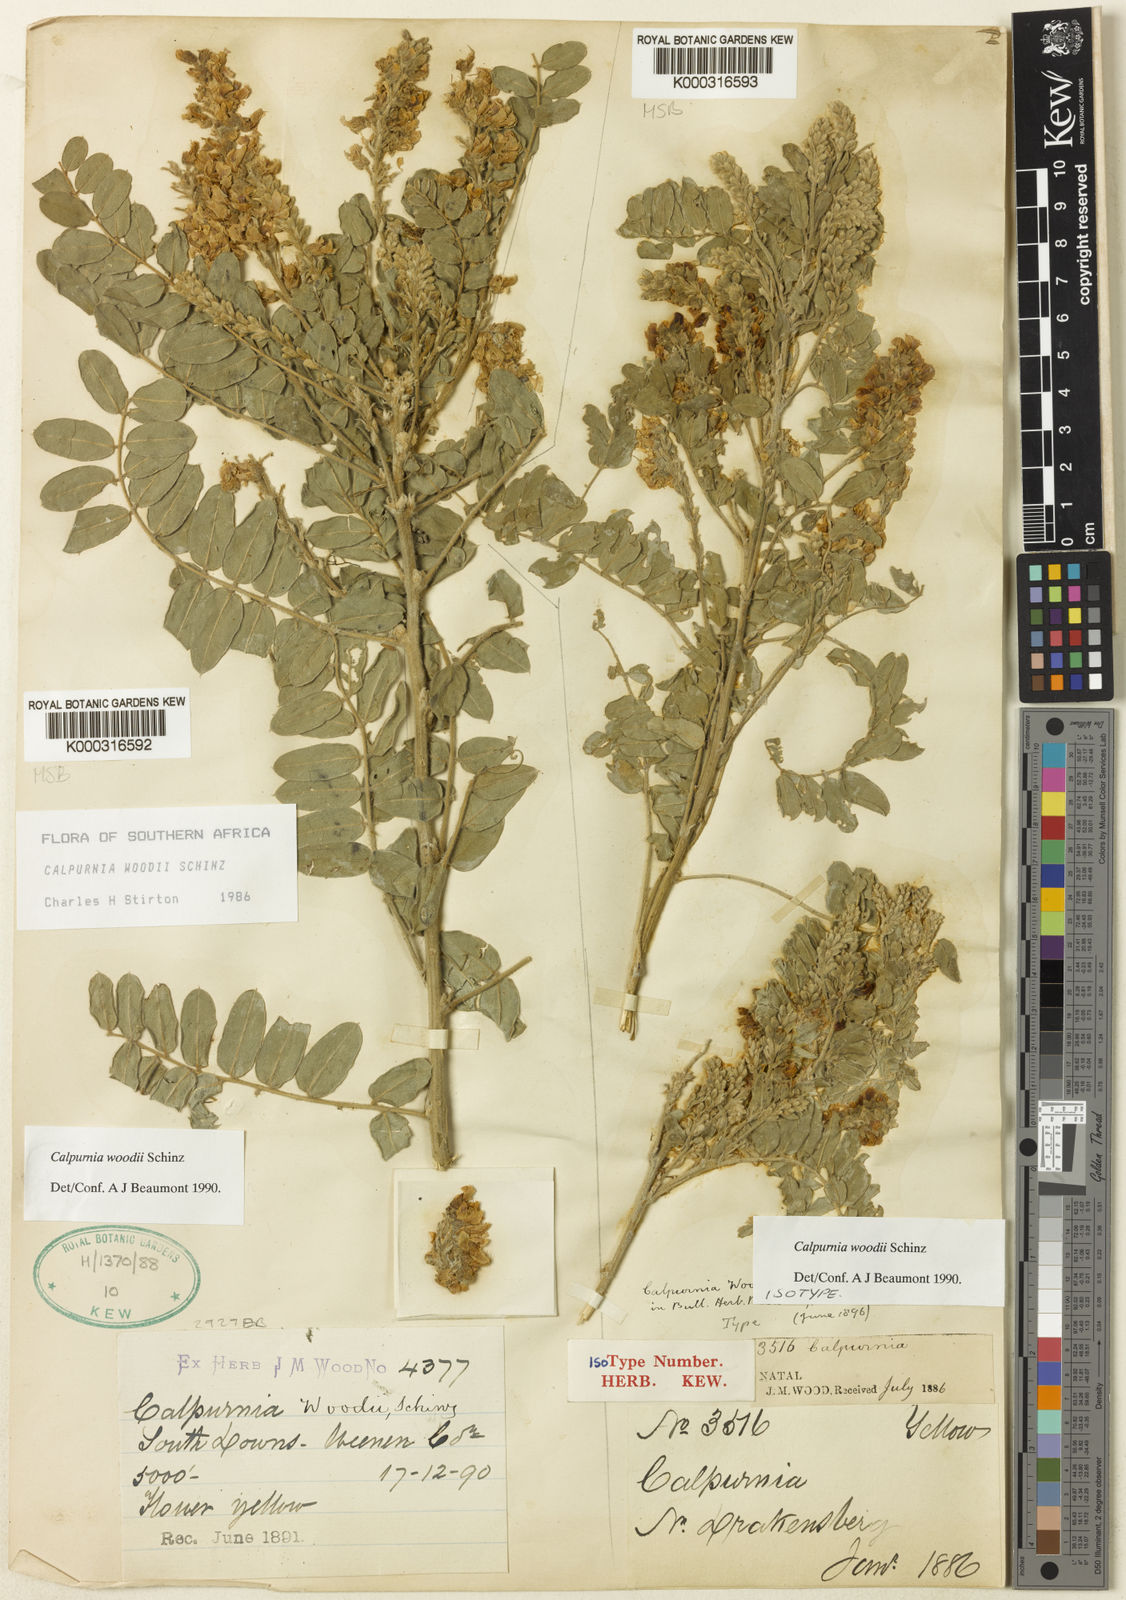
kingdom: Plantae
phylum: Tracheophyta
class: Magnoliopsida
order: Fabales
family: Fabaceae
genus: Calpurnia
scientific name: Calpurnia woodii
